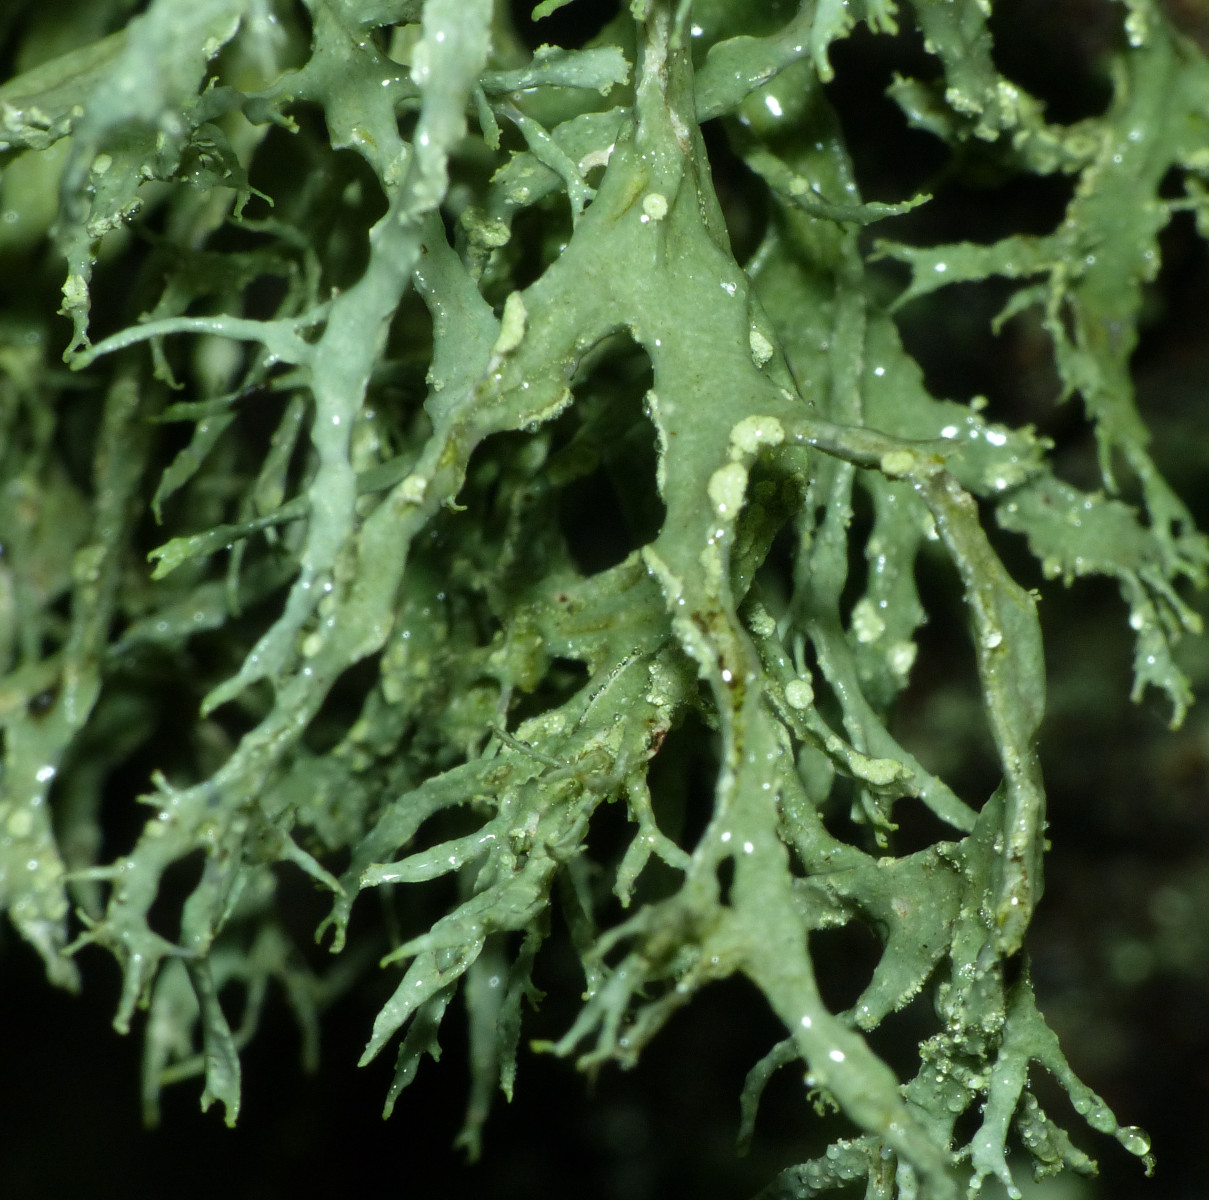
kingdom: Fungi
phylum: Ascomycota
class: Lecanoromycetes
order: Lecanorales
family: Ramalinaceae
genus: Ramalina
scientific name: Ramalina farinacea
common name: melet grenlav
